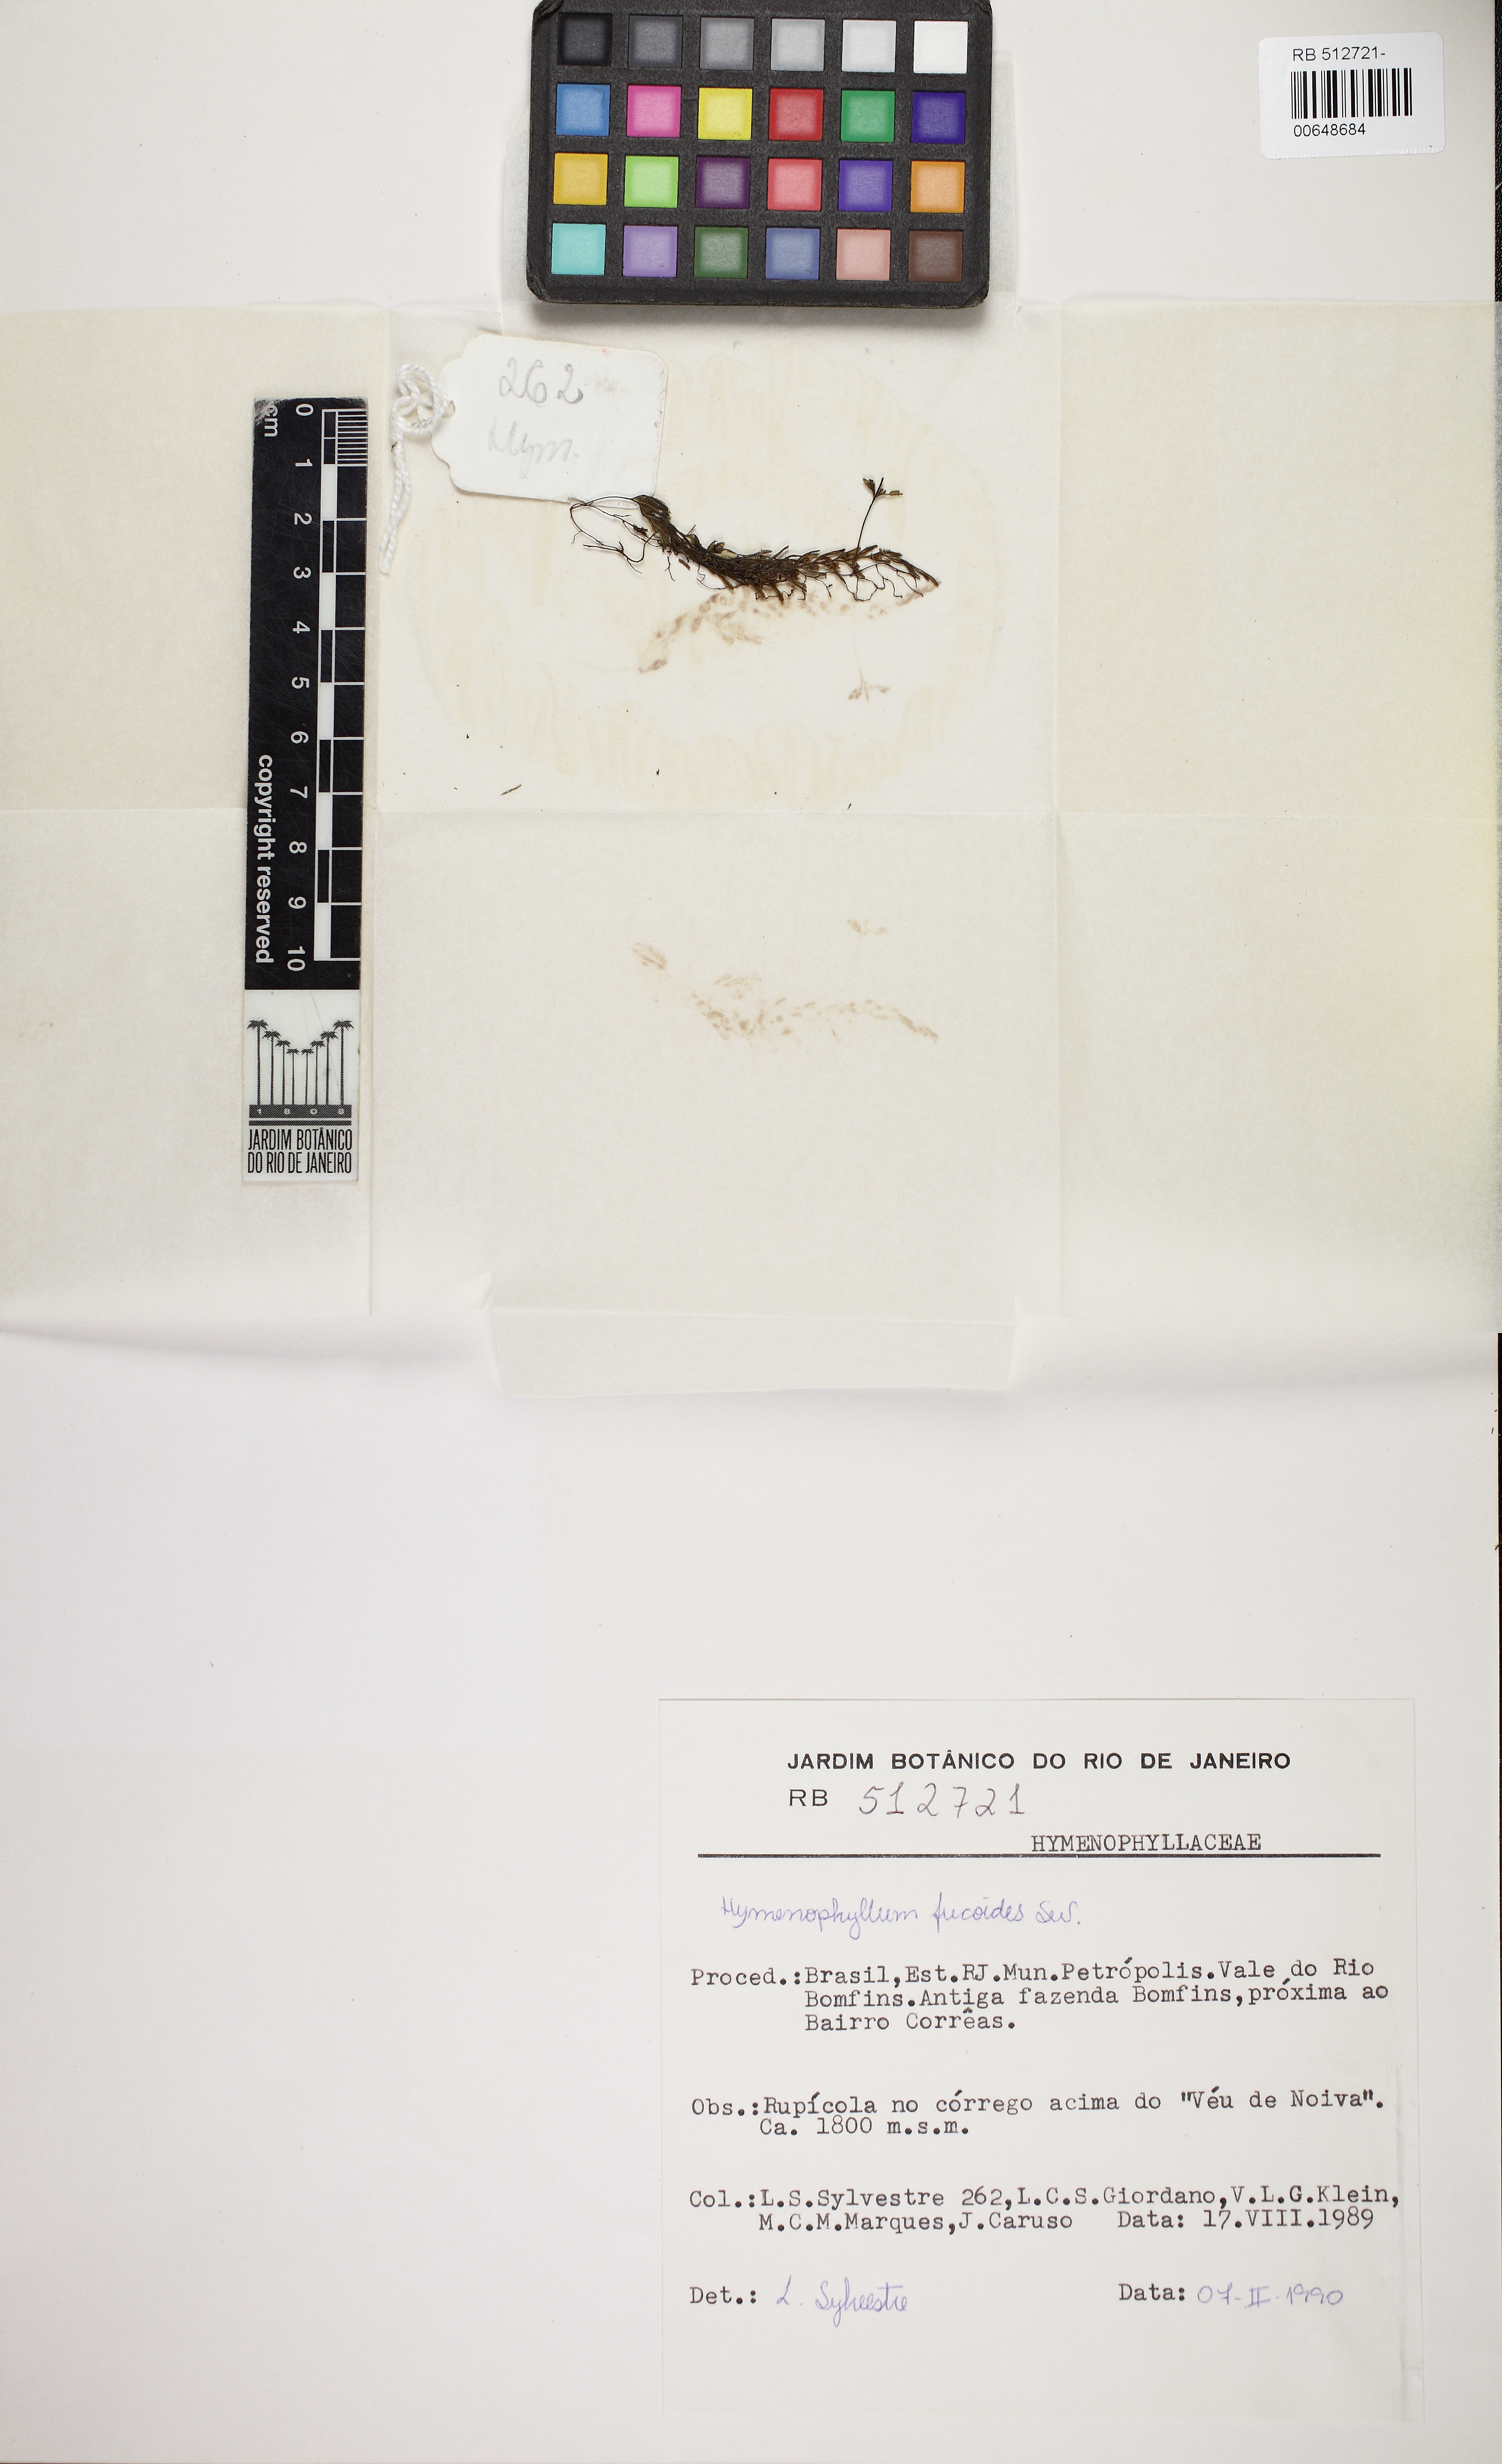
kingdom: Plantae
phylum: Tracheophyta
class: Polypodiopsida
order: Hymenophyllales
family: Hymenophyllaceae
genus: Hymenophyllum
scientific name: Hymenophyllum peltatum
